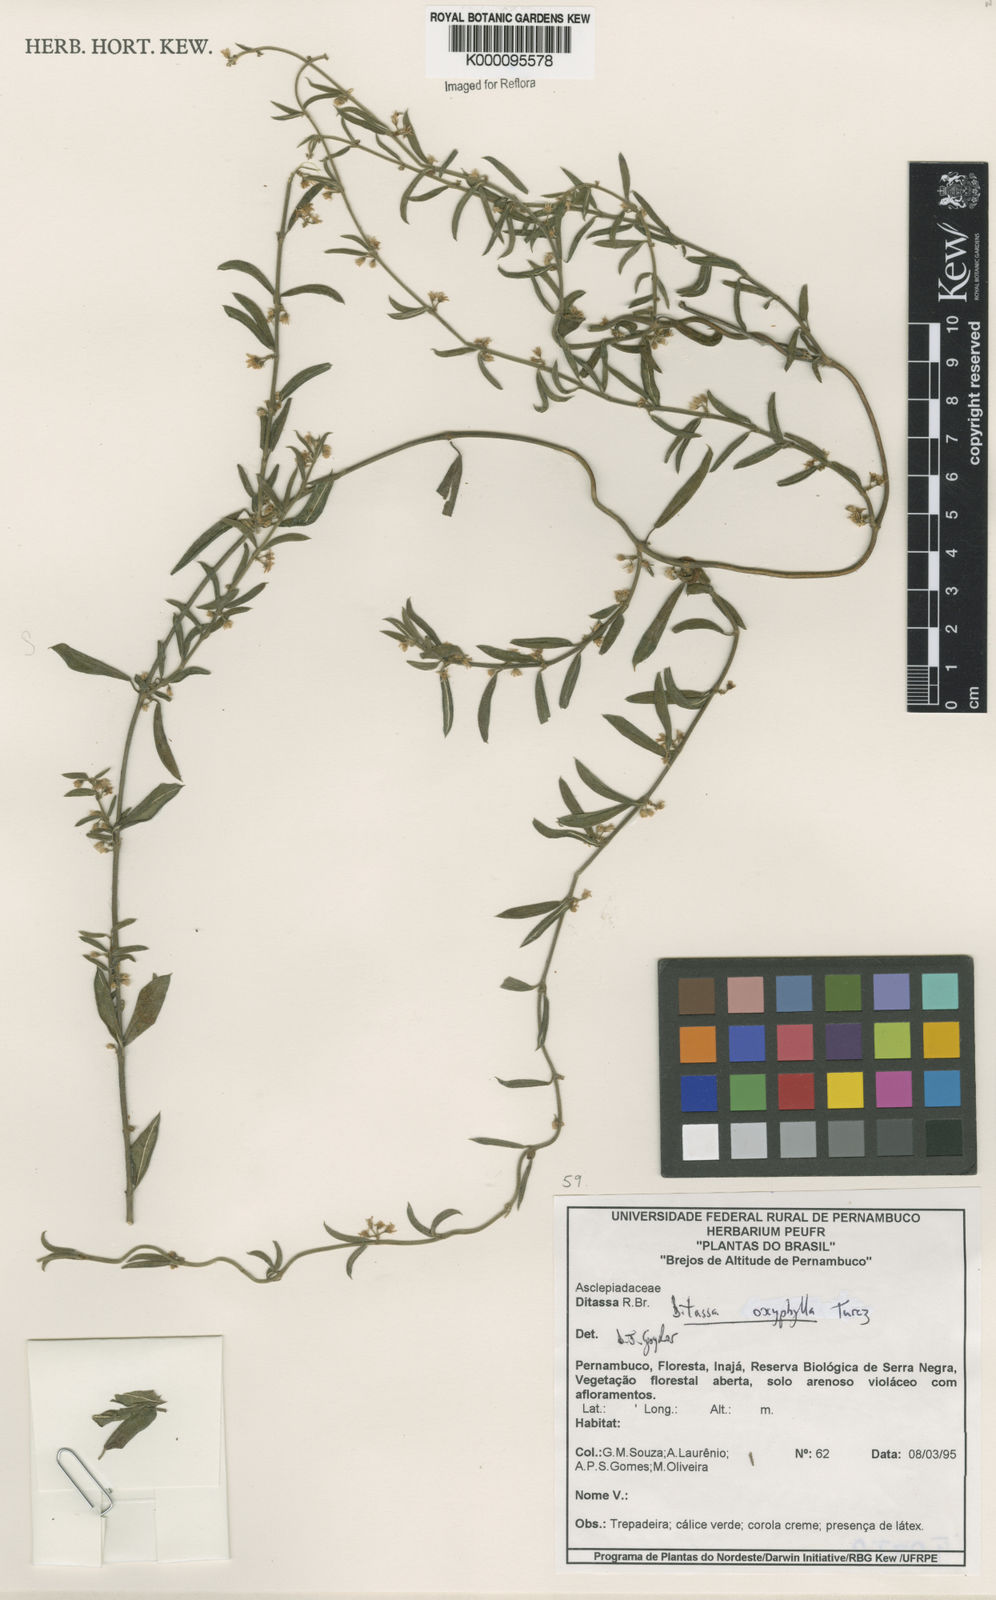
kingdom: Plantae
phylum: Tracheophyta
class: Magnoliopsida
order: Gentianales
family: Apocynaceae
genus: Ditassa
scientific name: Ditassa oxyphylla
